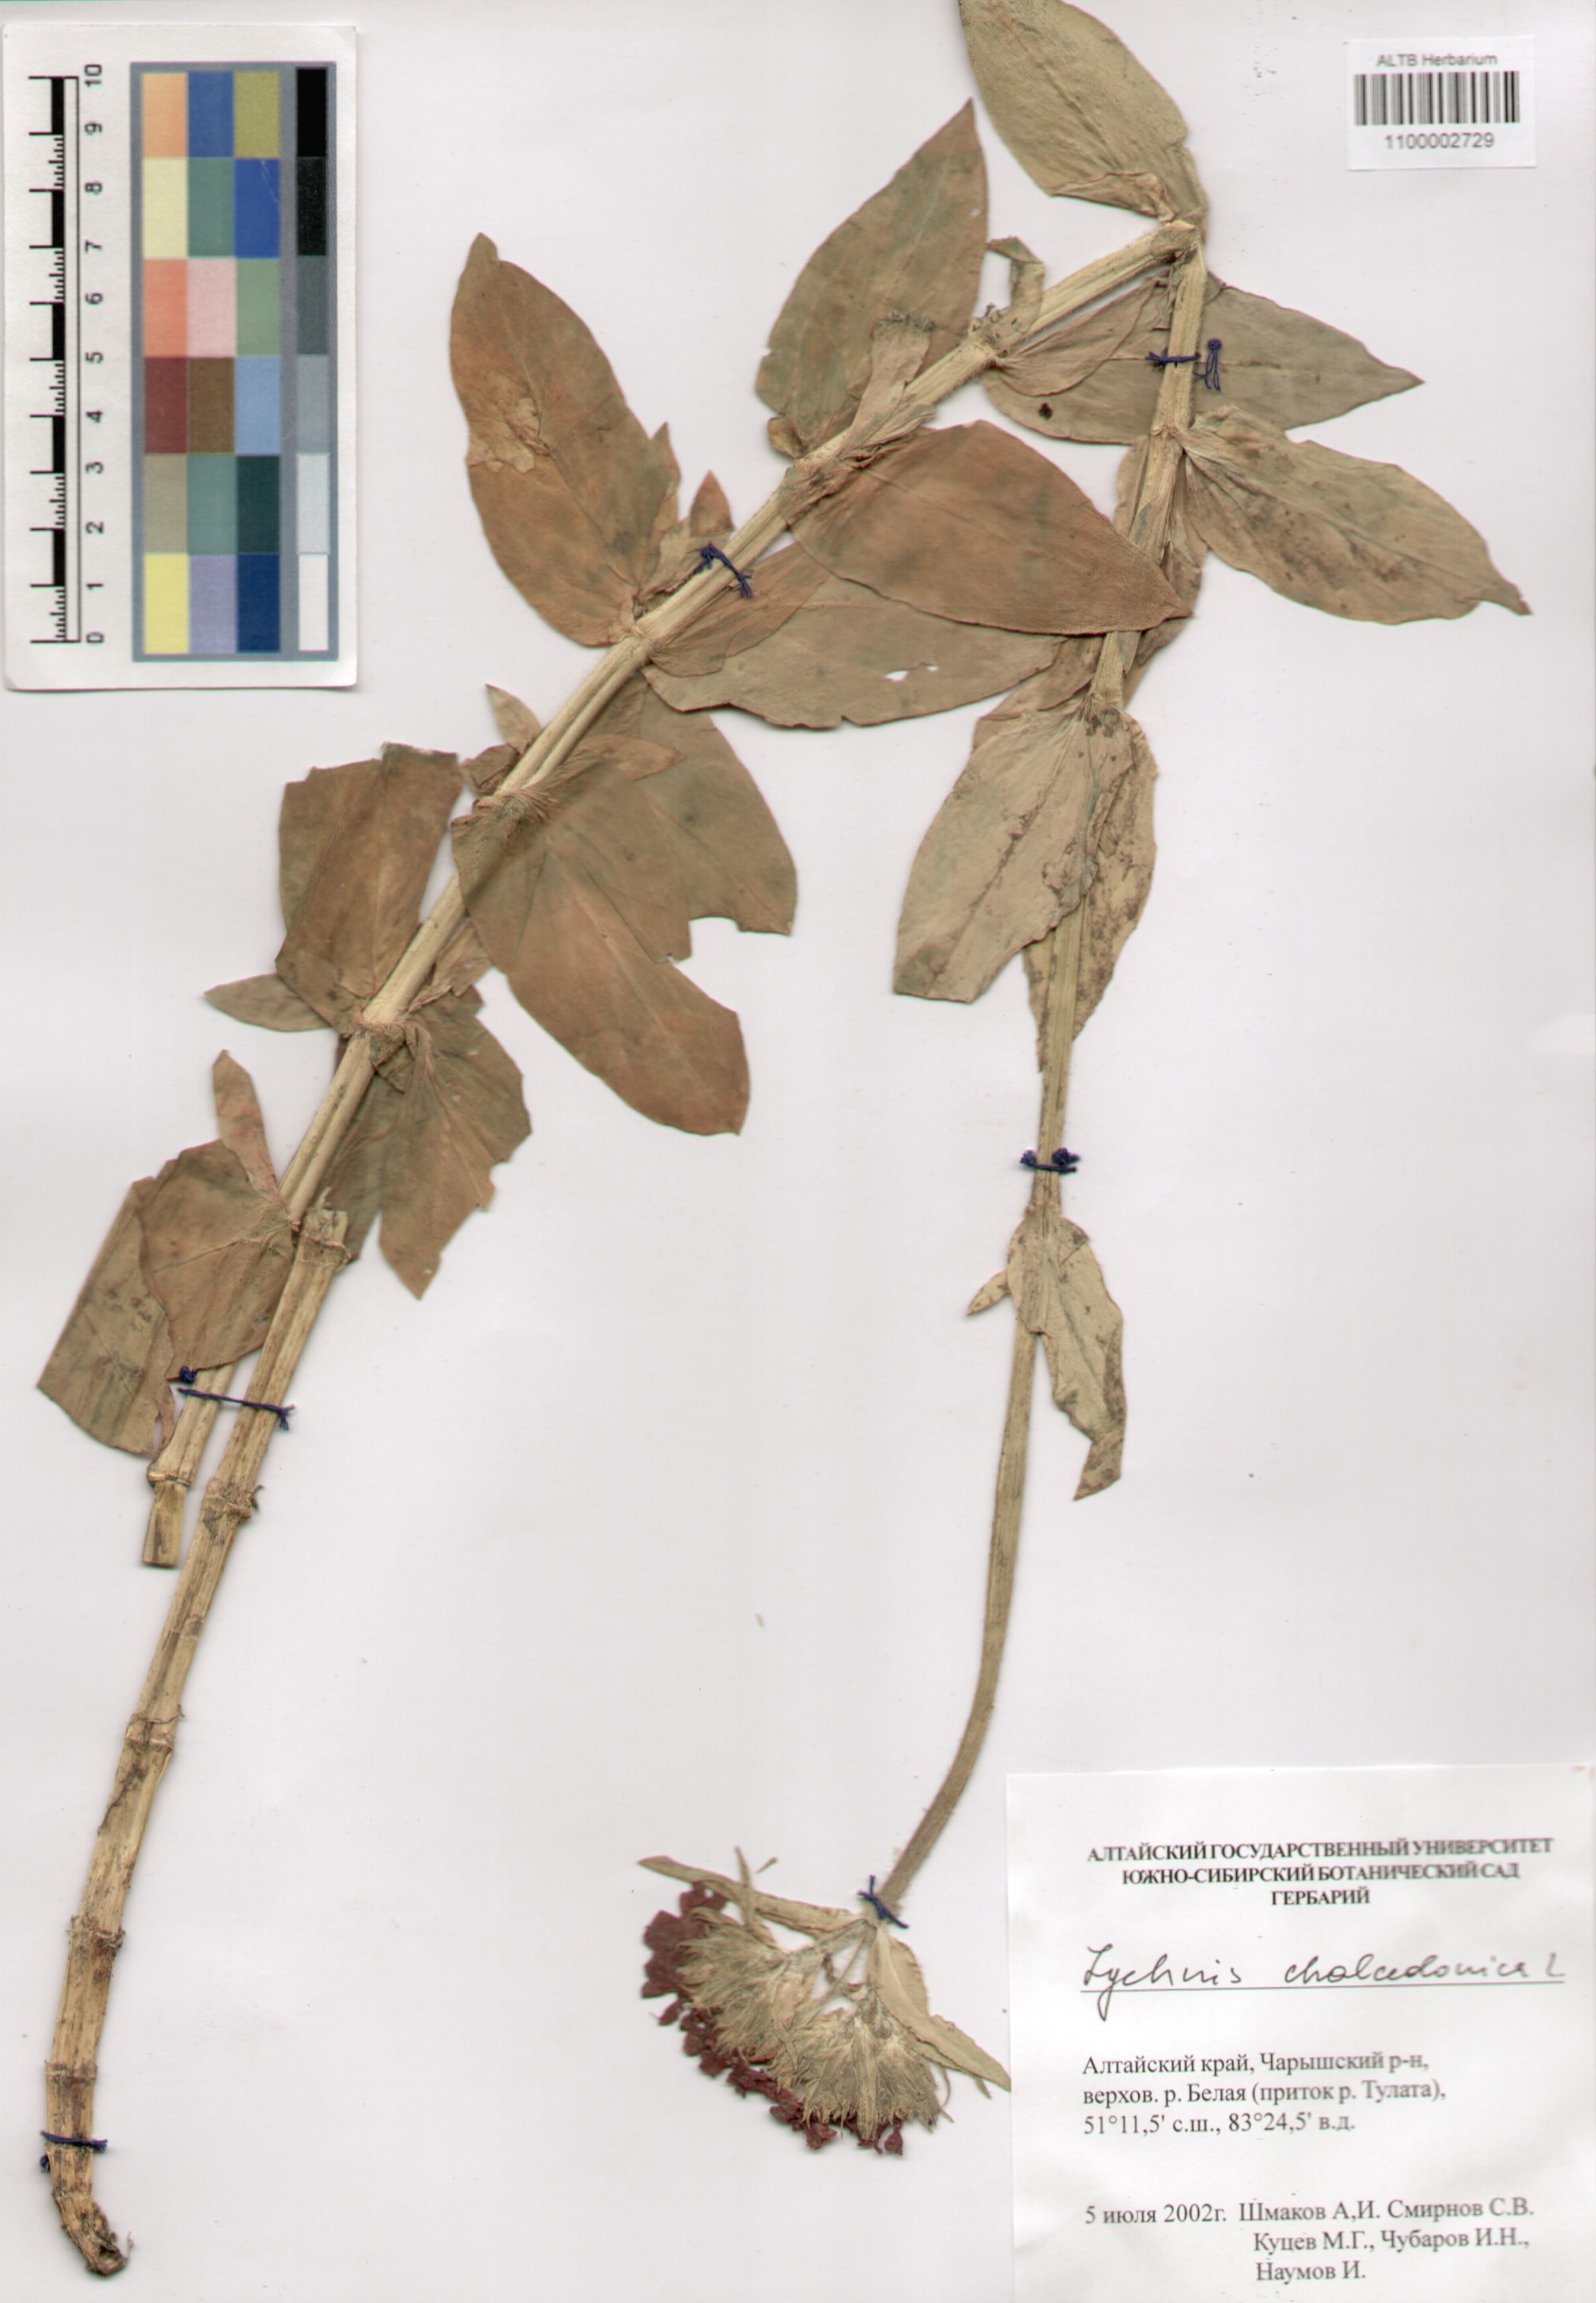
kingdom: Plantae
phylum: Tracheophyta
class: Magnoliopsida
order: Caryophyllales
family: Caryophyllaceae
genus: Silene
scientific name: Silene chalcedonica
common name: Maltese-cross
